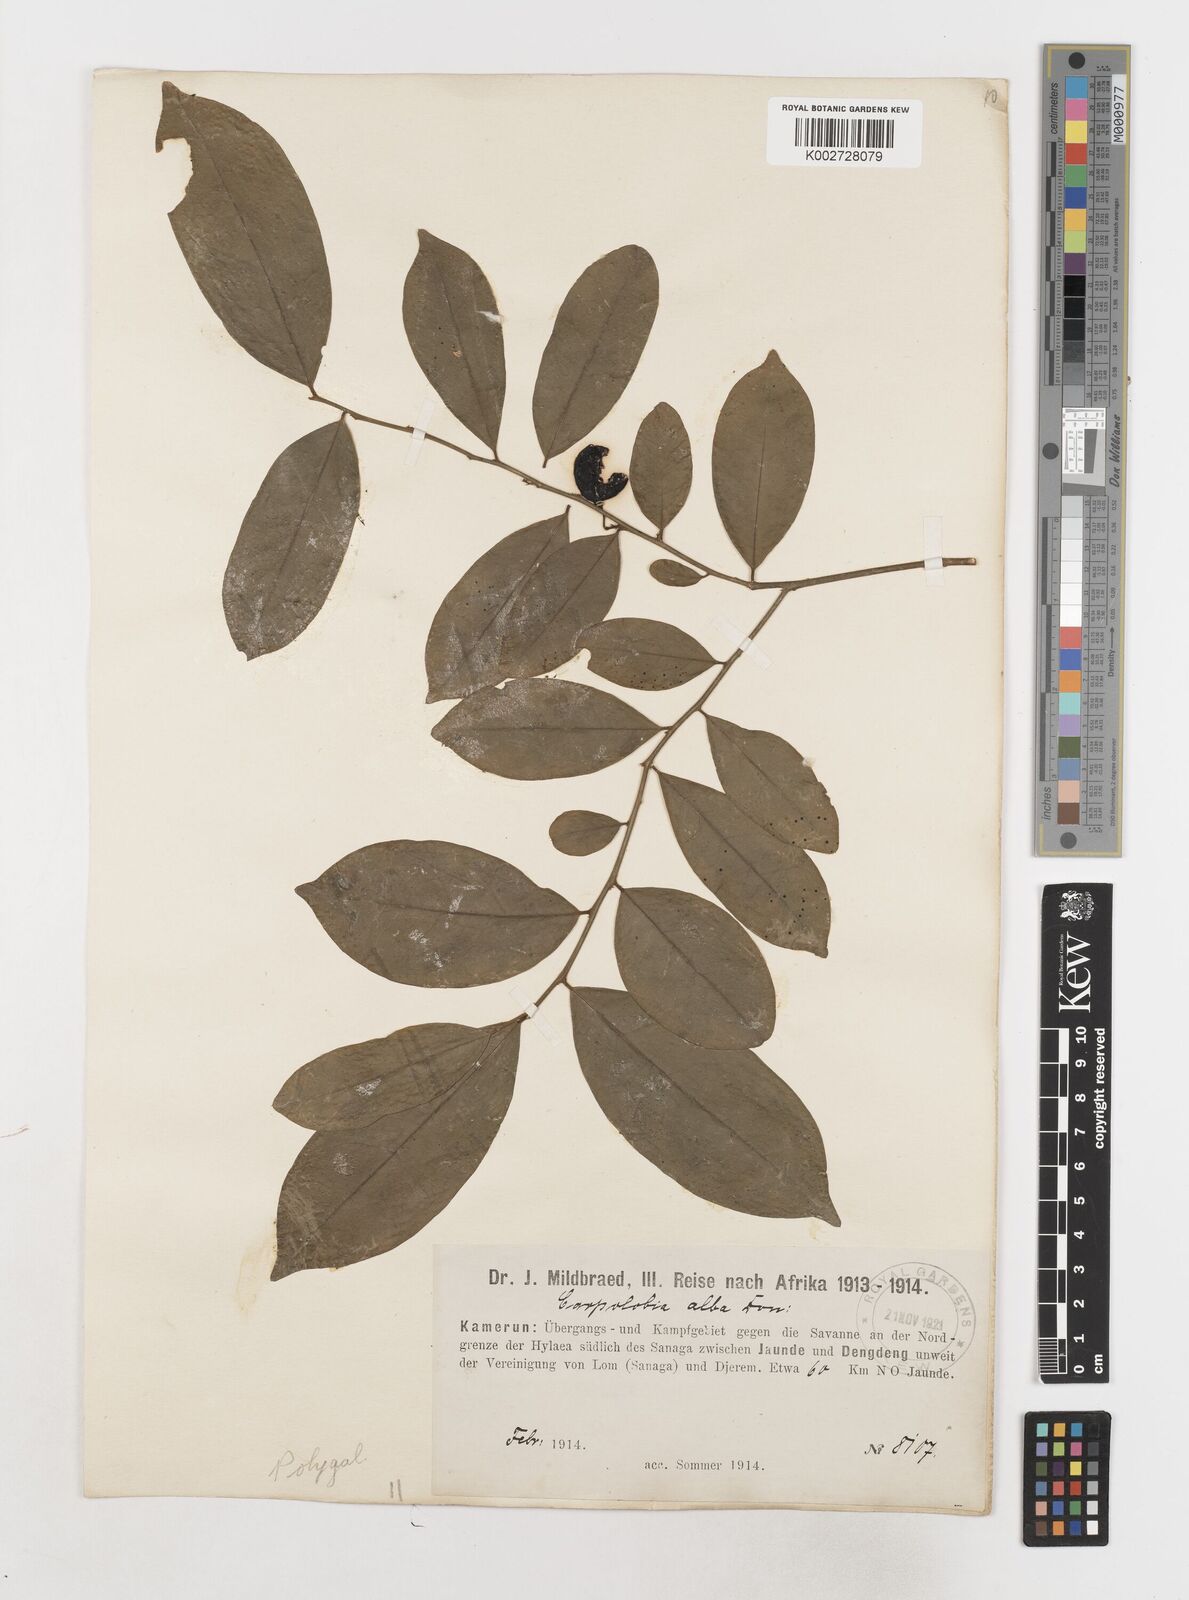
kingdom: Plantae
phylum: Tracheophyta
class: Magnoliopsida
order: Fabales
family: Polygalaceae
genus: Carpolobia
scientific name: Carpolobia alba
